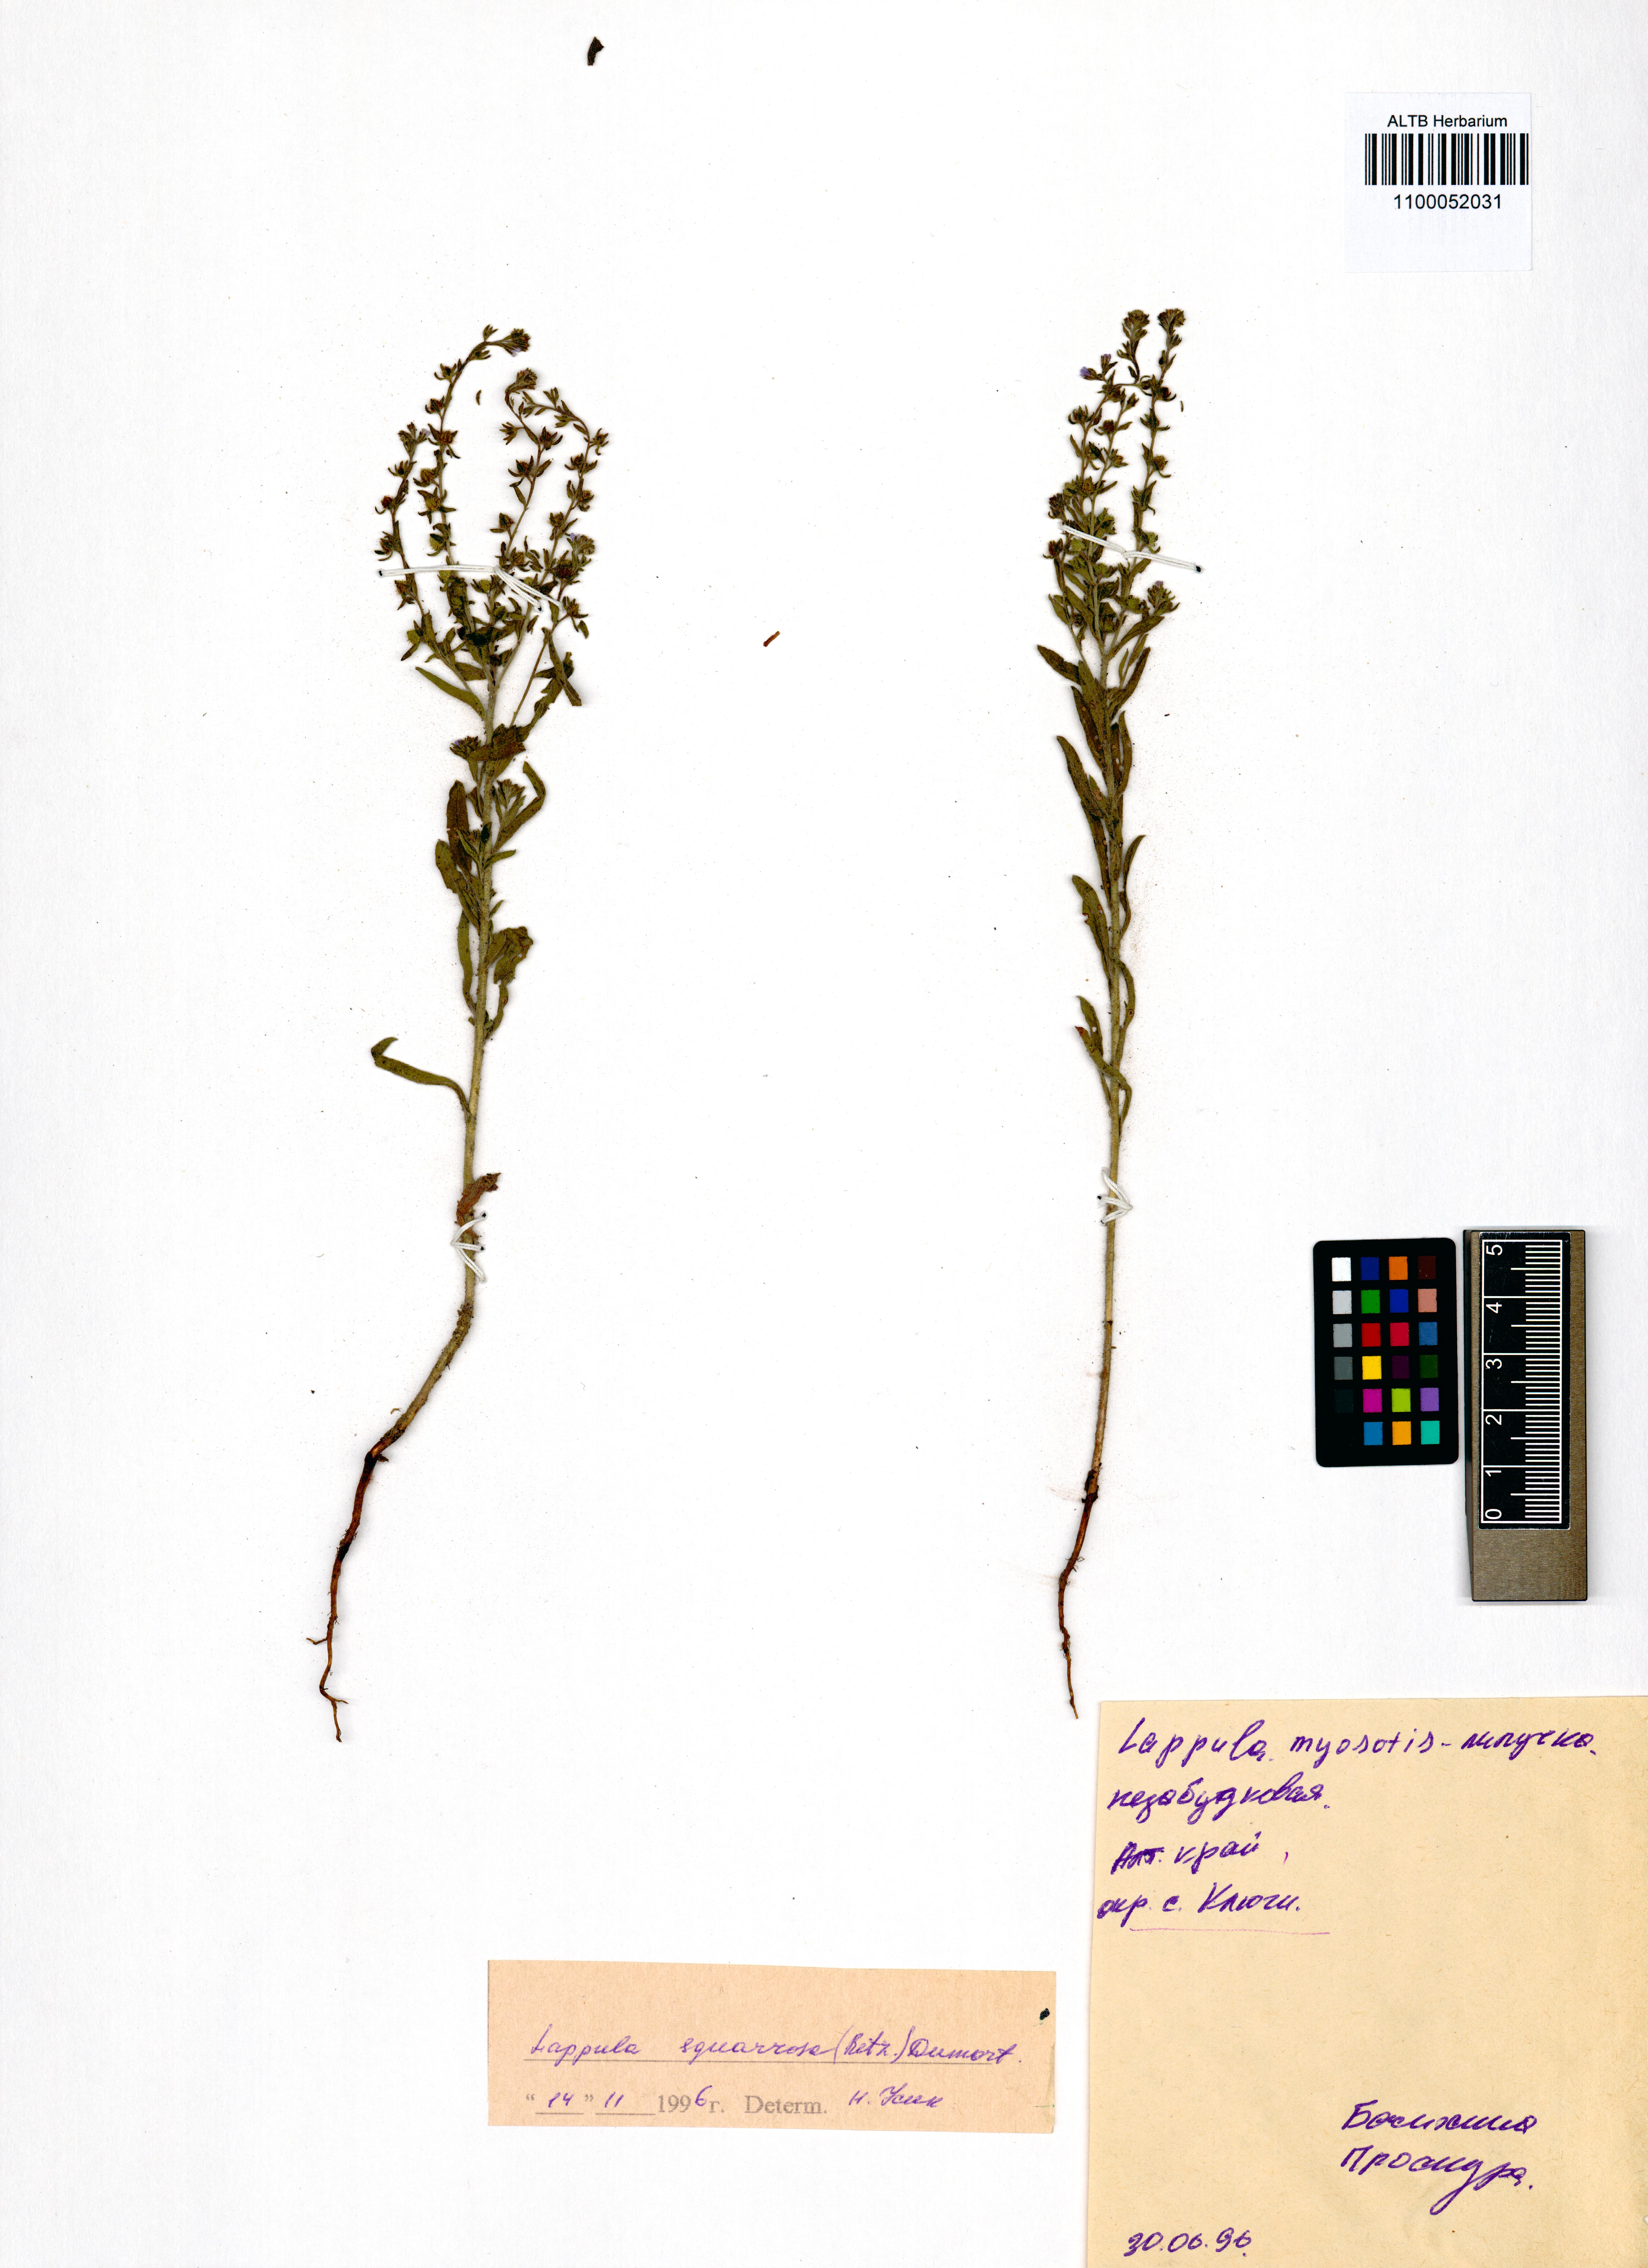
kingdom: Plantae
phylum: Tracheophyta
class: Magnoliopsida
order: Boraginales
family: Boraginaceae
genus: Lappula
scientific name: Lappula squarrosa
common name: European stickseed
